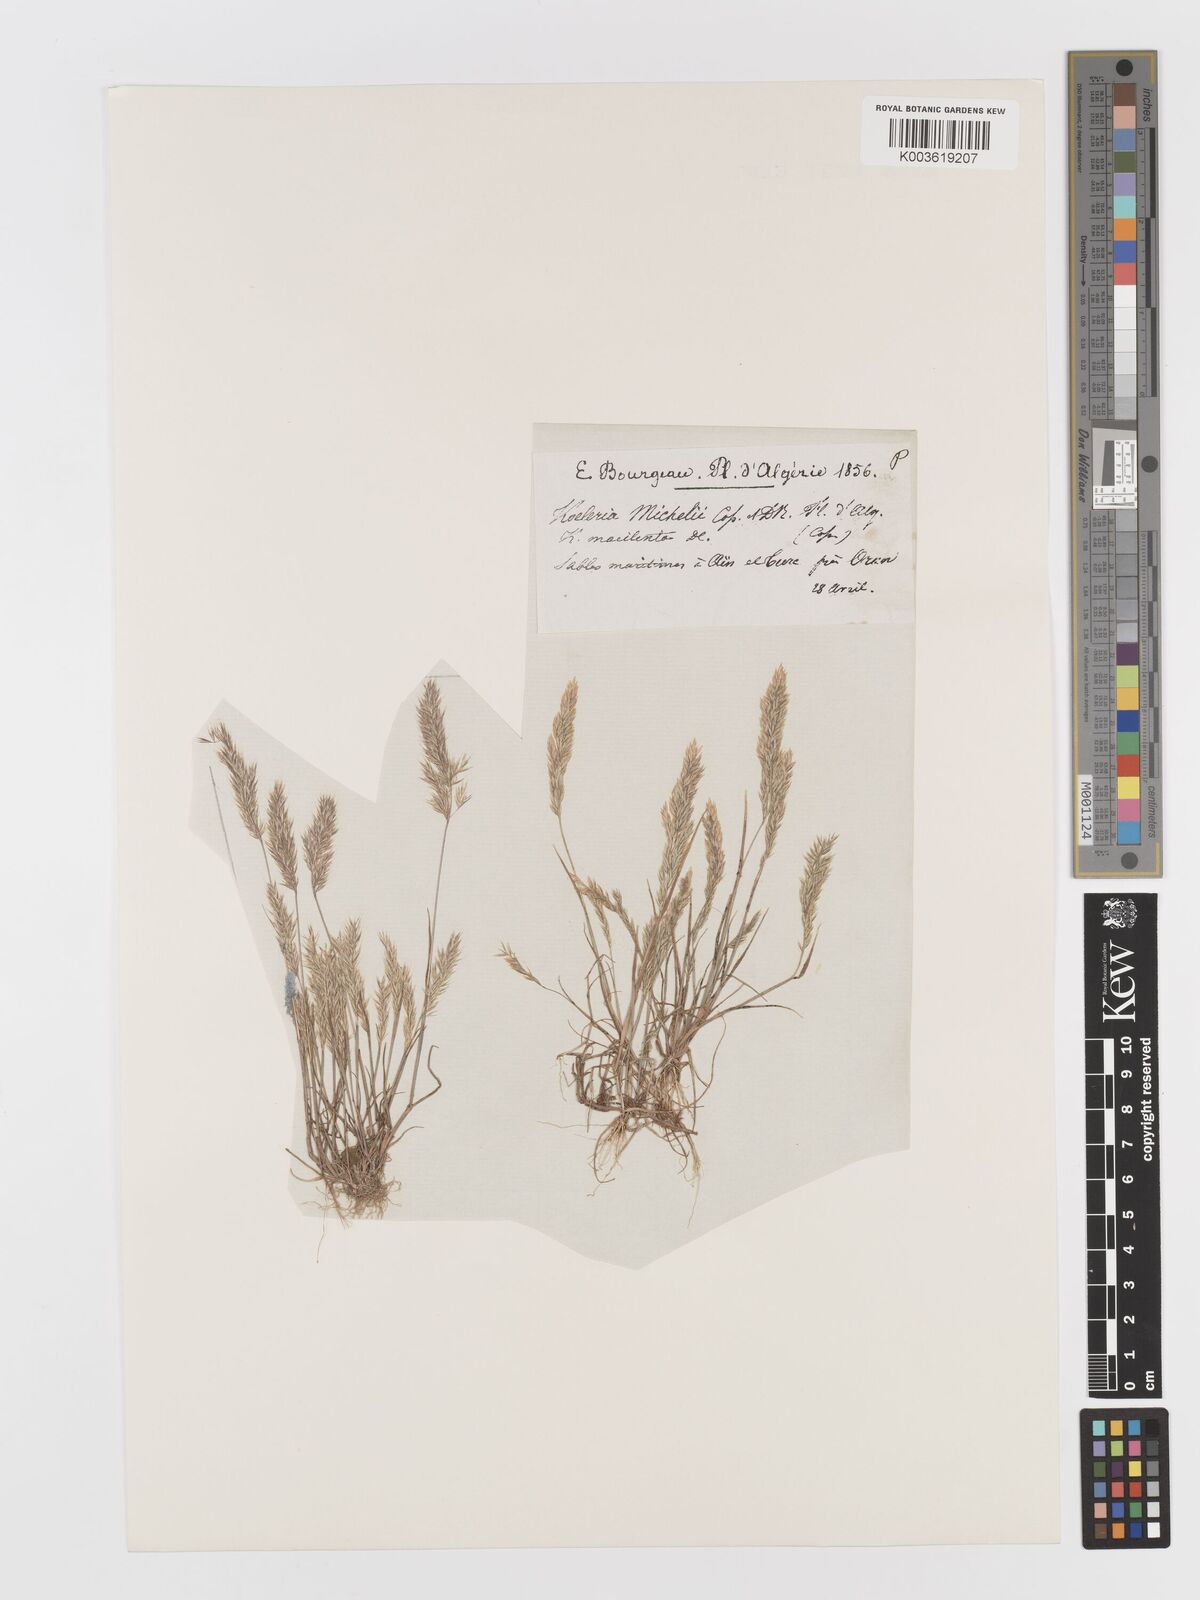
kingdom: Plantae
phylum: Tracheophyta
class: Liliopsida
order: Poales
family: Poaceae
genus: Avellinia
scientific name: Avellinia festucoides
